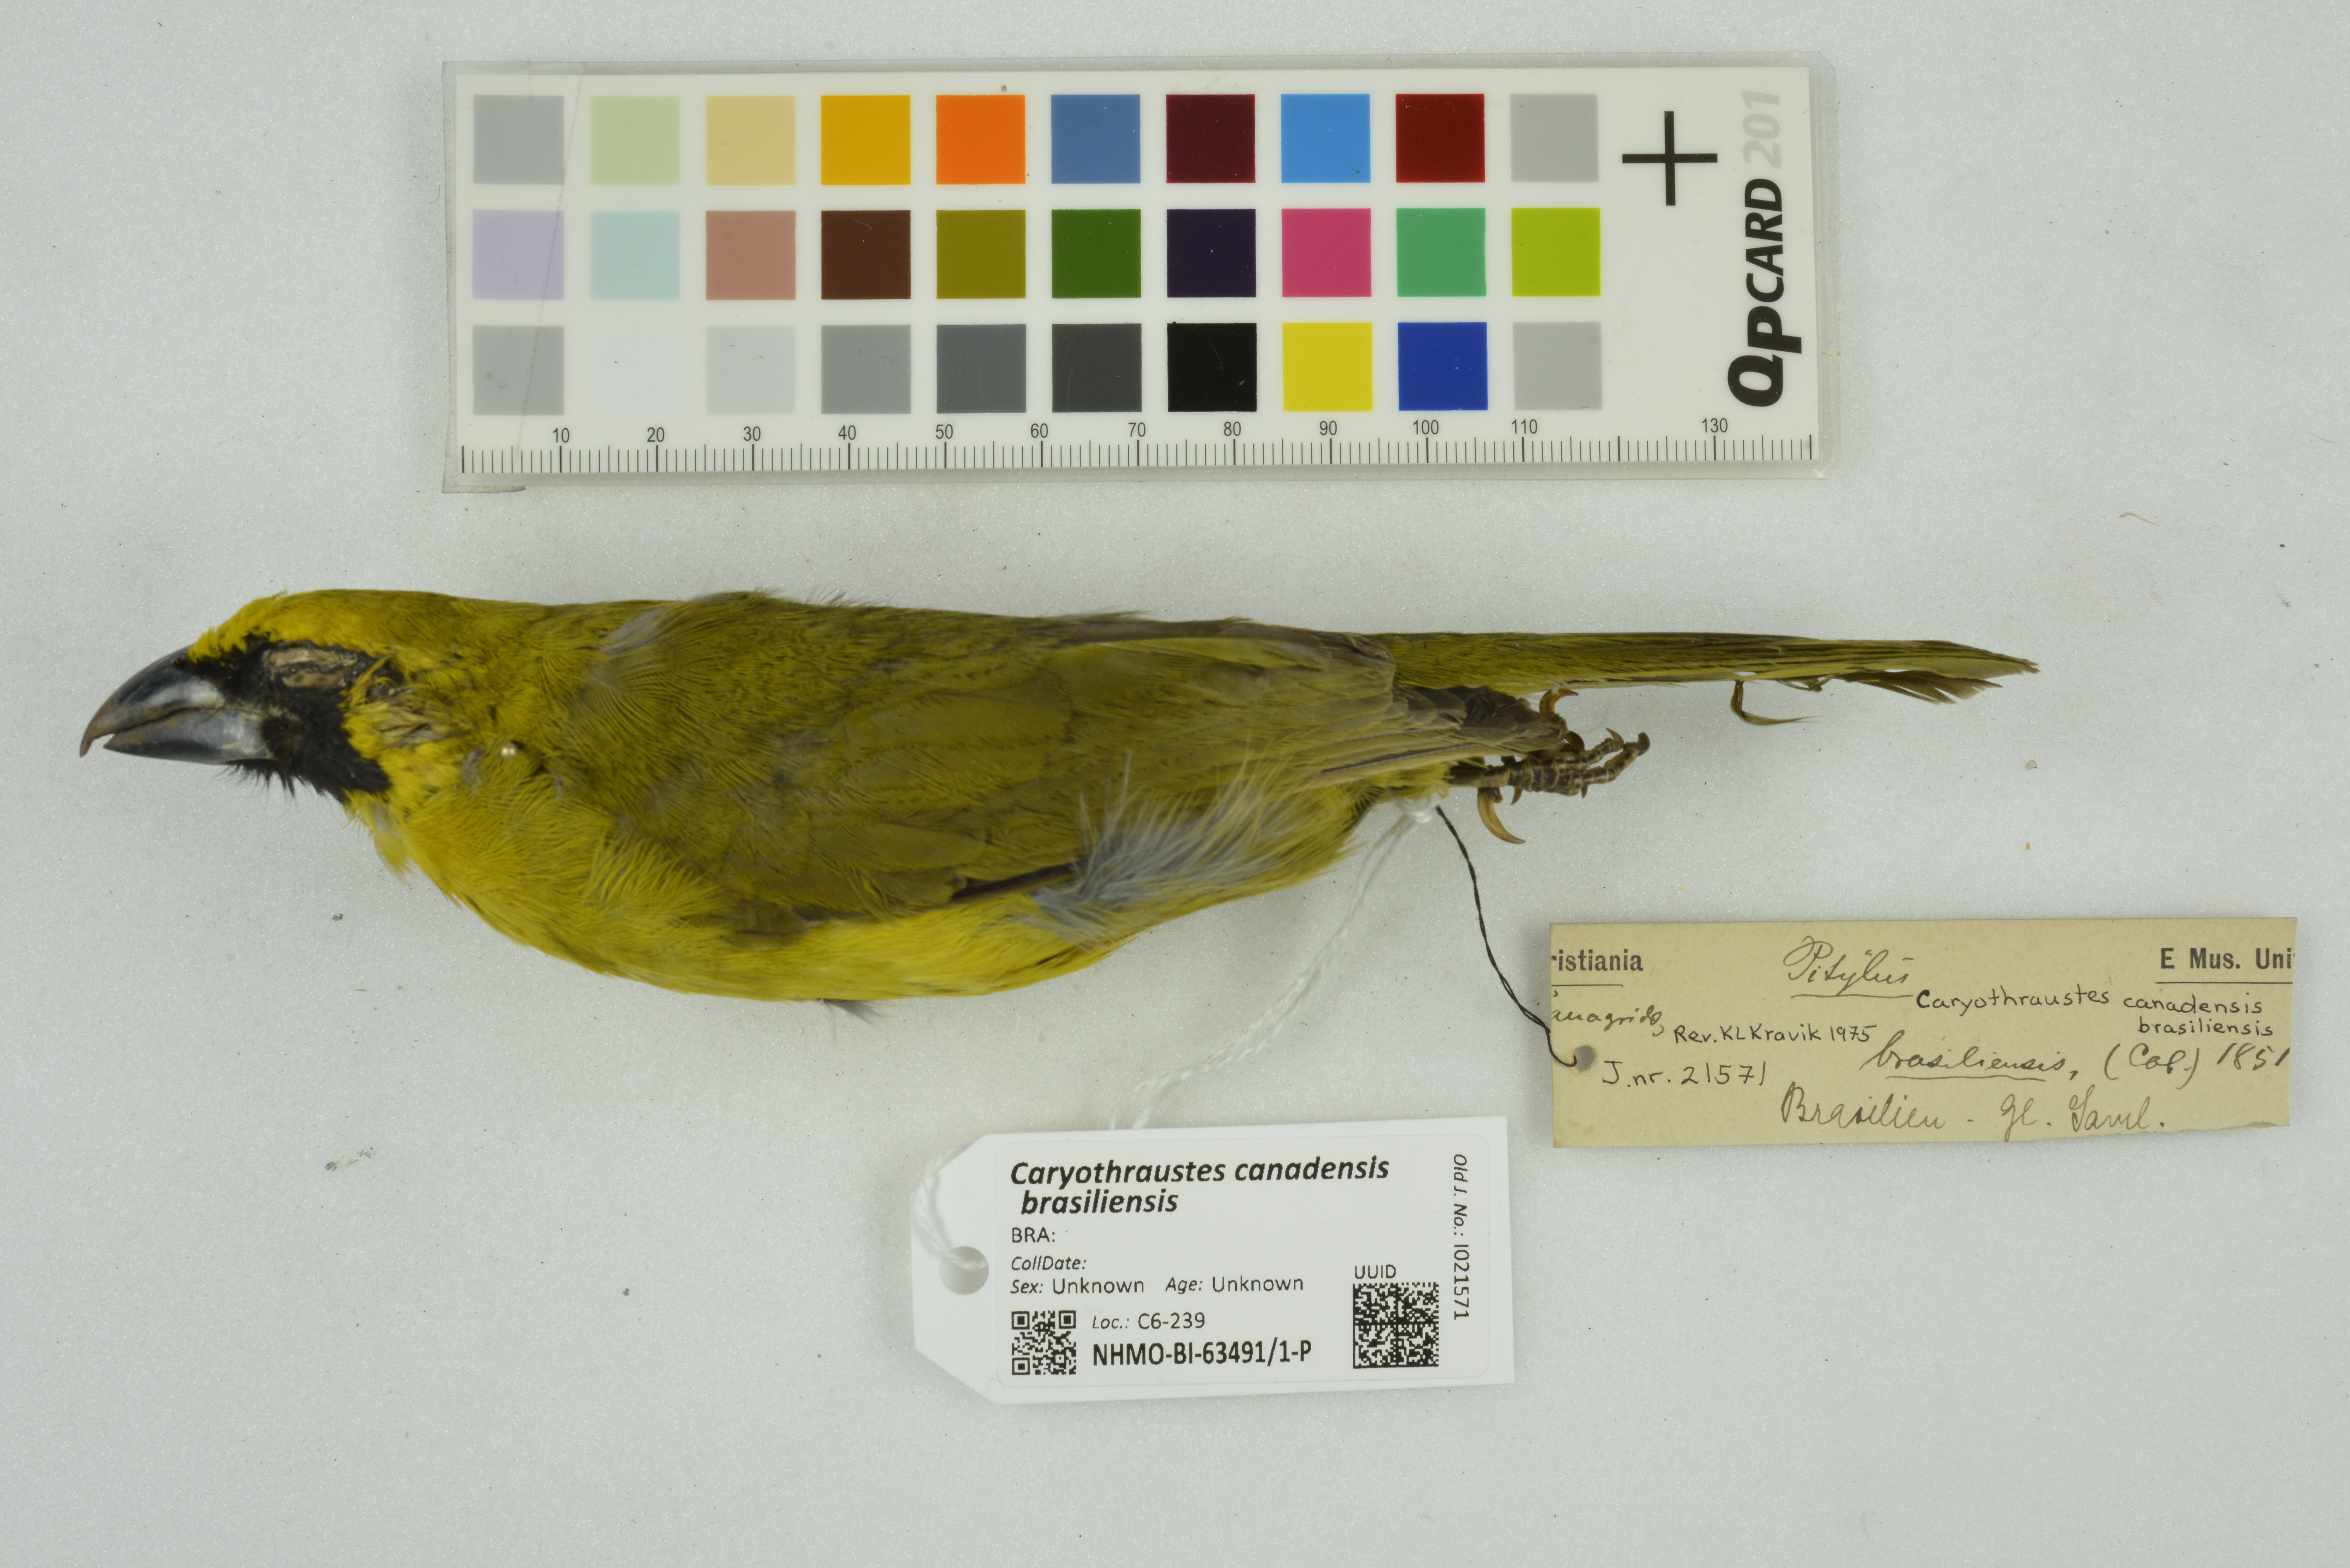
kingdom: Animalia
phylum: Chordata
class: Aves
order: Passeriformes
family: Cardinalidae
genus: Caryothraustes
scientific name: Caryothraustes canadensis
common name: Yellow-green grosbeak
